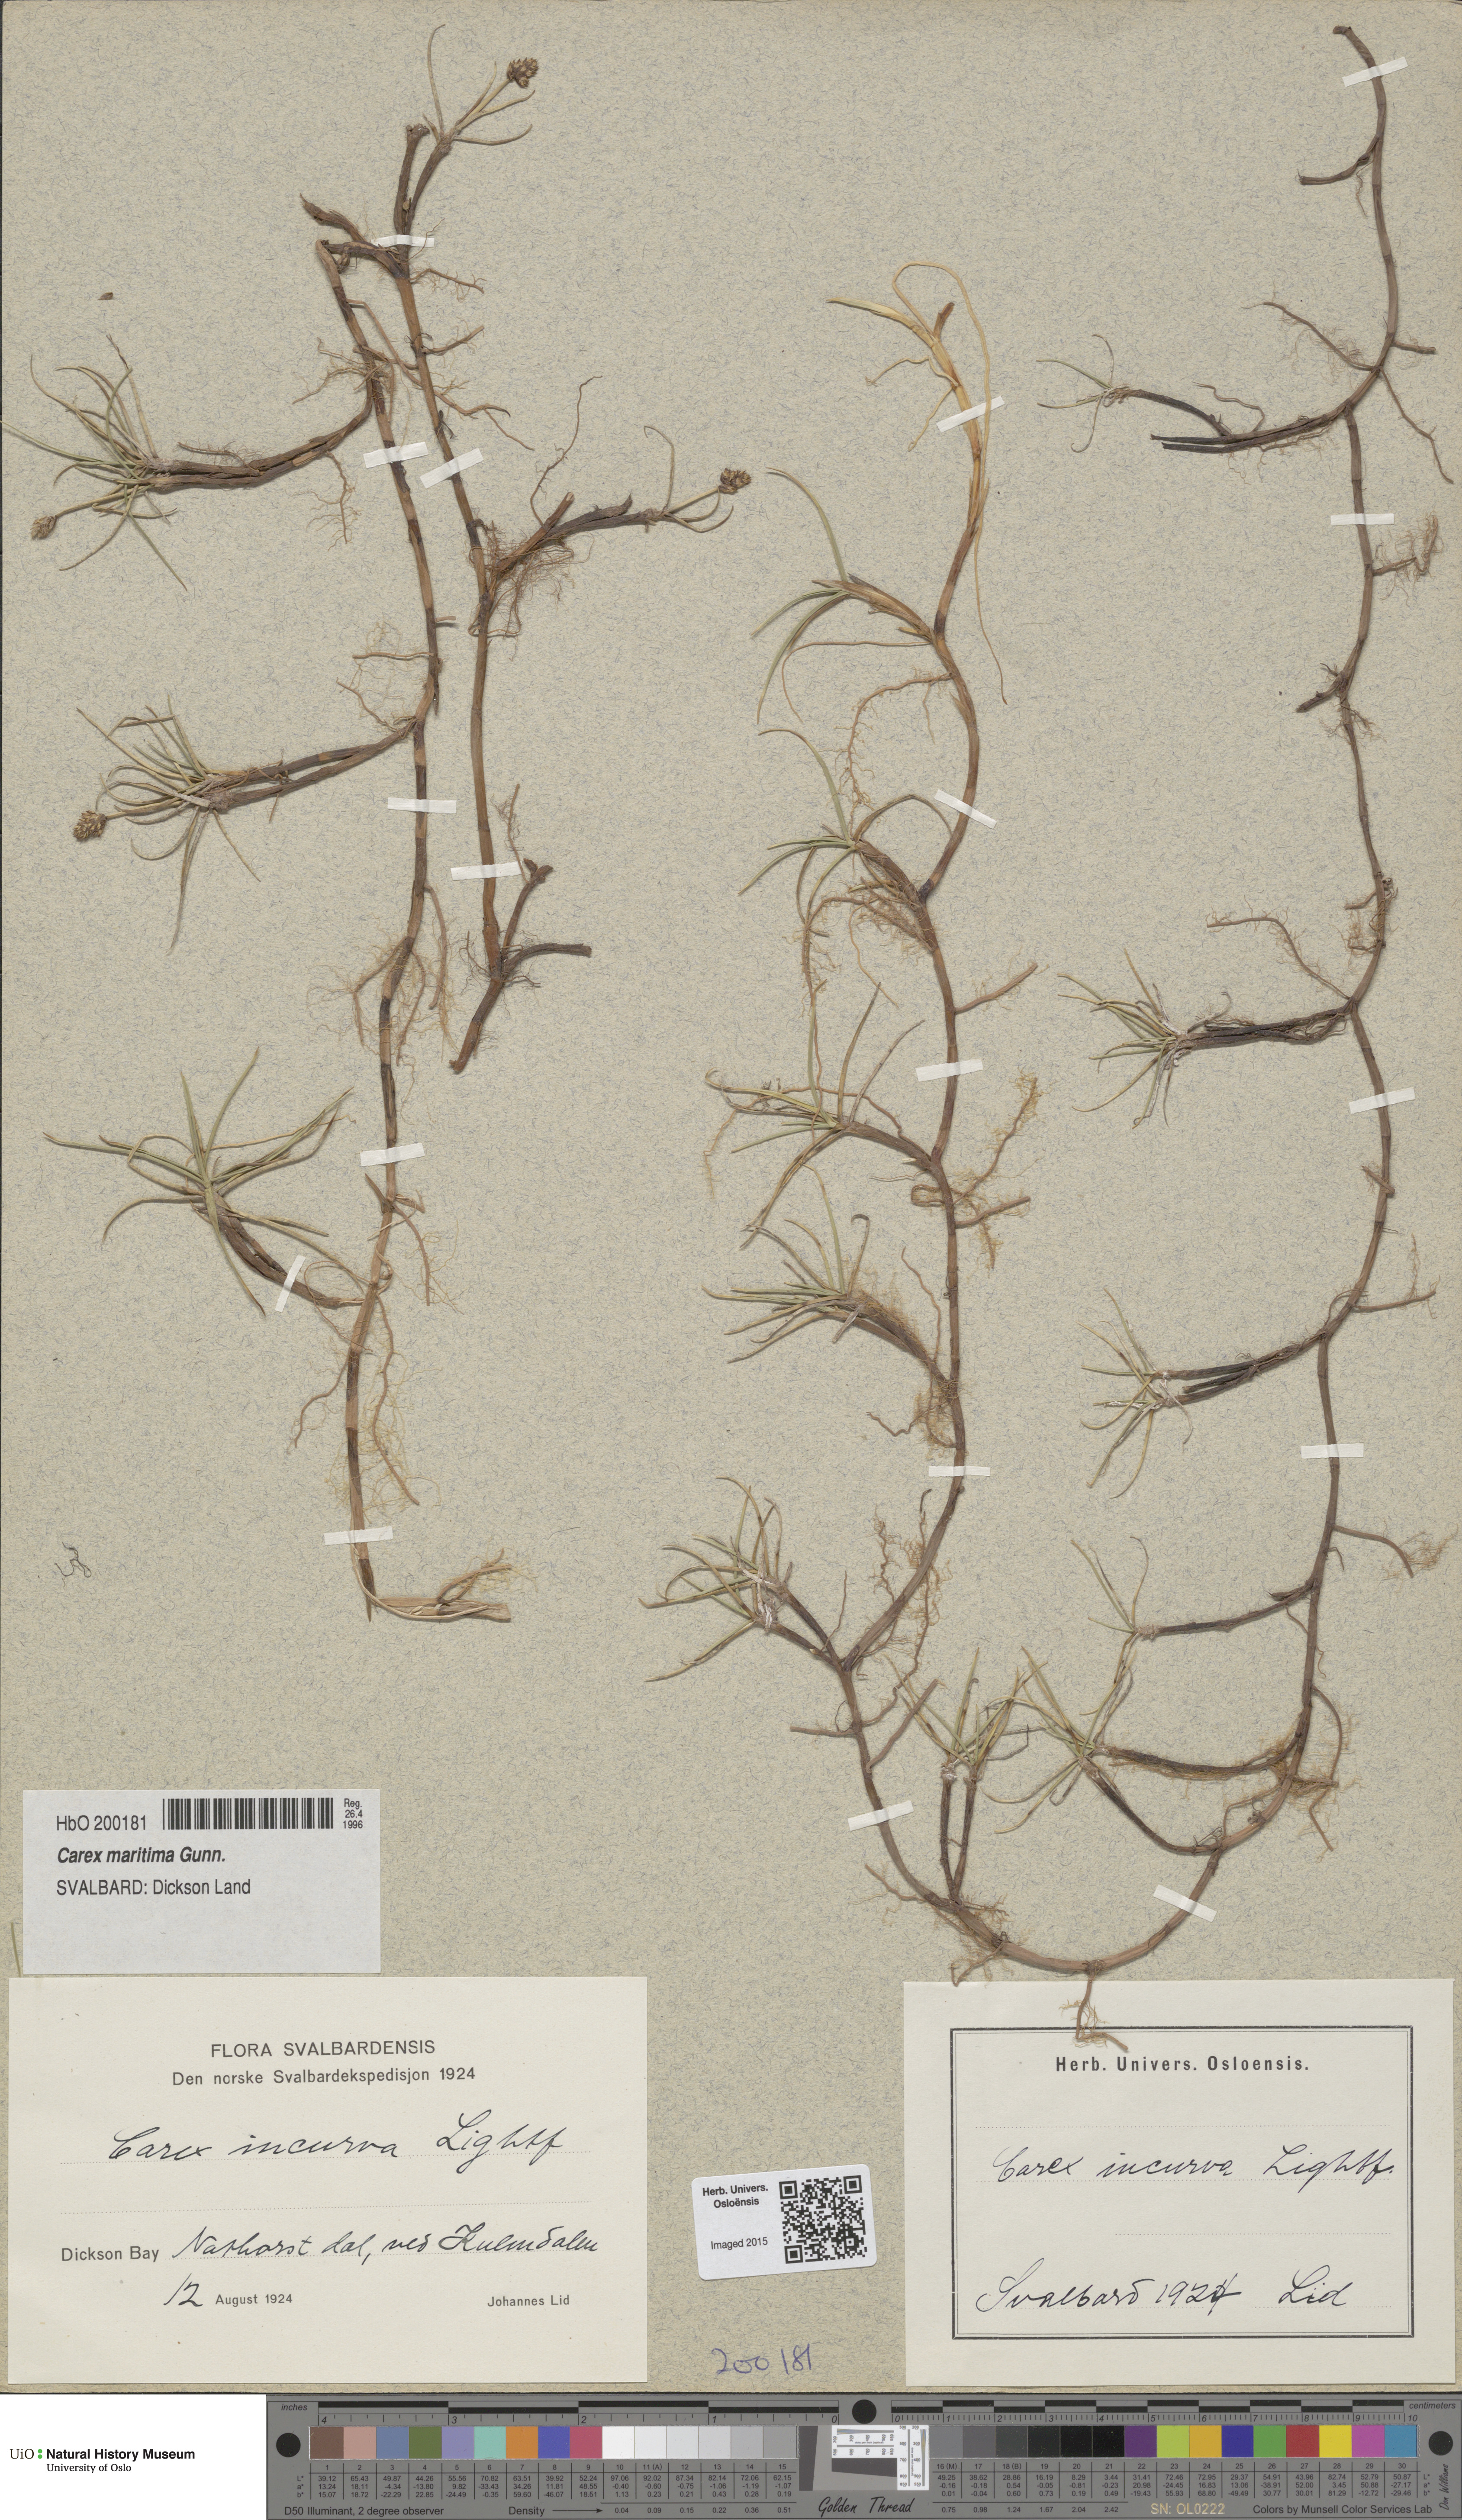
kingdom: Plantae
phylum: Tracheophyta
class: Liliopsida
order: Poales
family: Cyperaceae
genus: Carex
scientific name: Carex maritima
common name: Curved sedge
